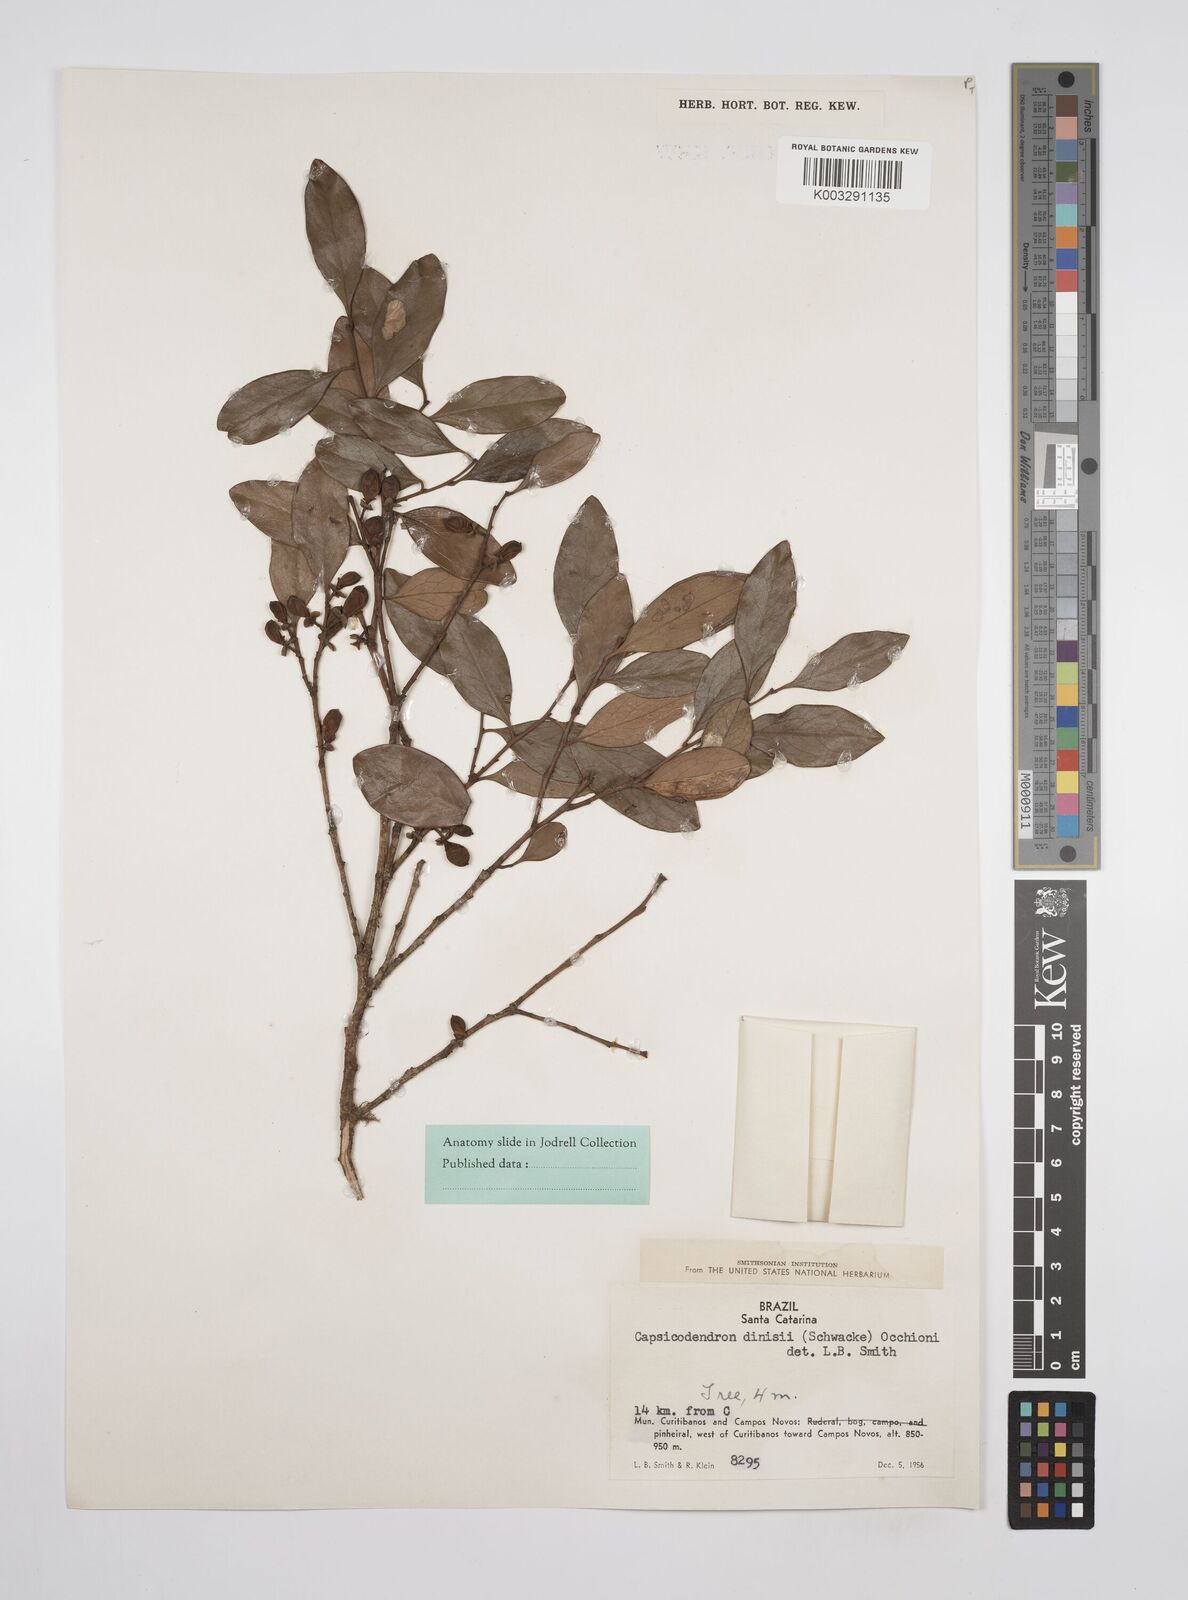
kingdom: Plantae
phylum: Tracheophyta
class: Magnoliopsida
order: Canellales
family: Canellaceae
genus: Cinnamodendron
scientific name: Cinnamodendron dinisii
